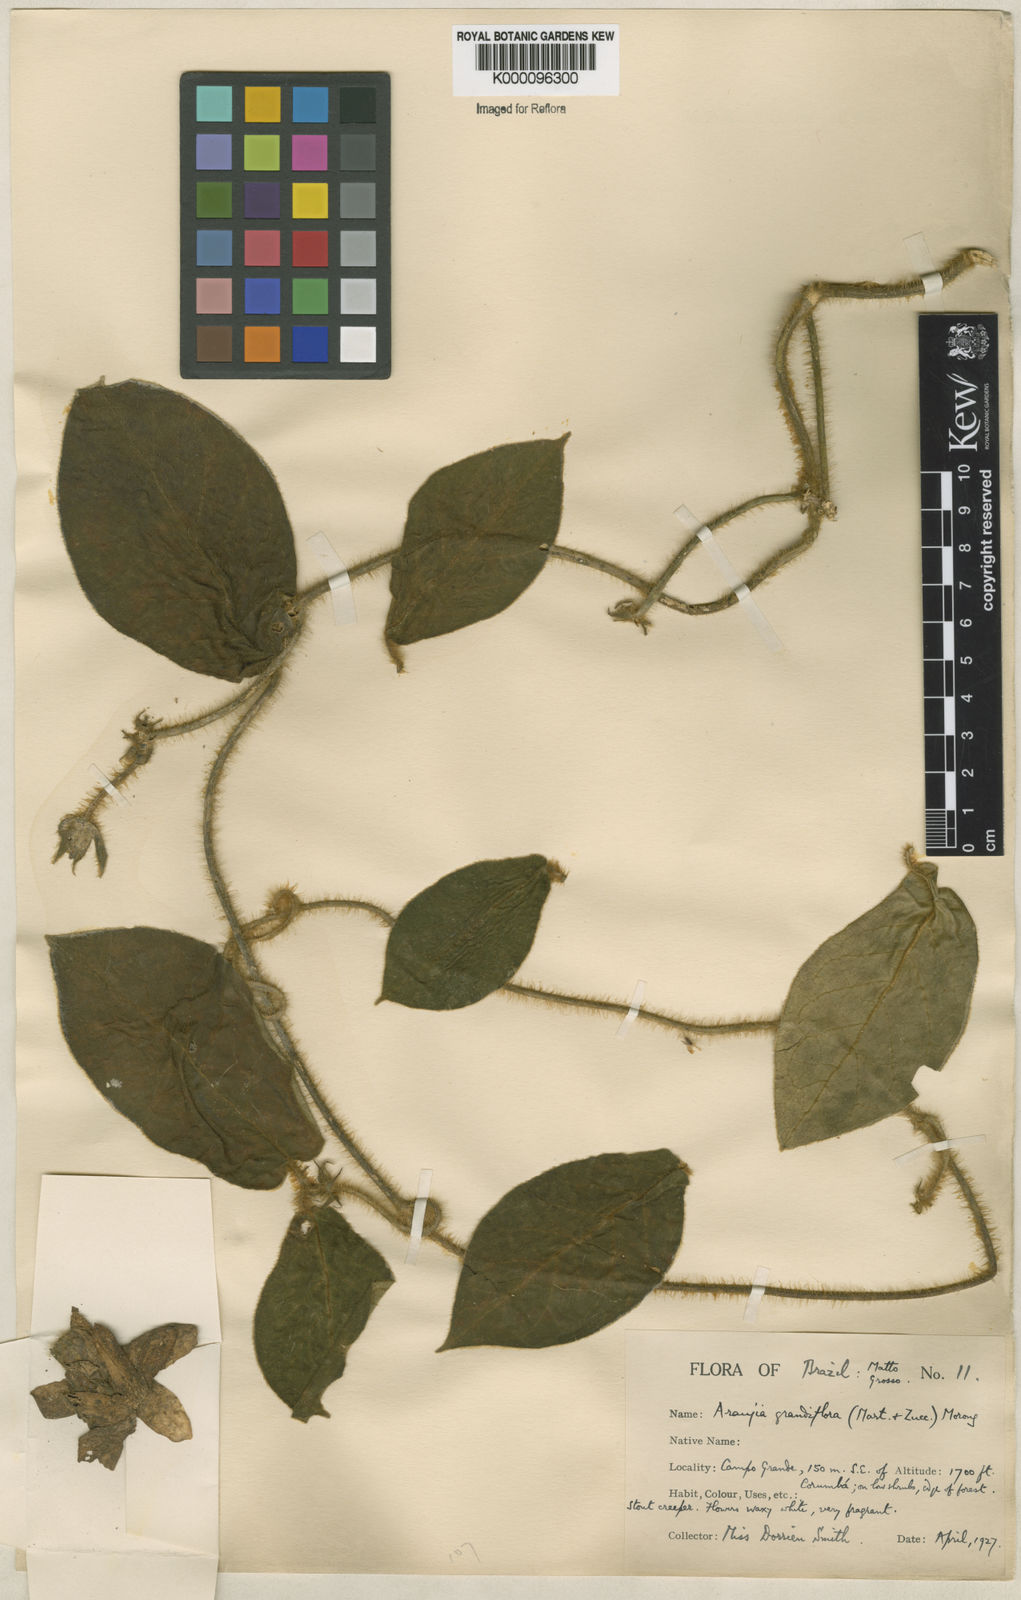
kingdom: Plantae
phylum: Tracheophyta
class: Magnoliopsida
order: Gentianales
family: Apocynaceae
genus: Macroscepis
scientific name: Macroscepis grandiflora
